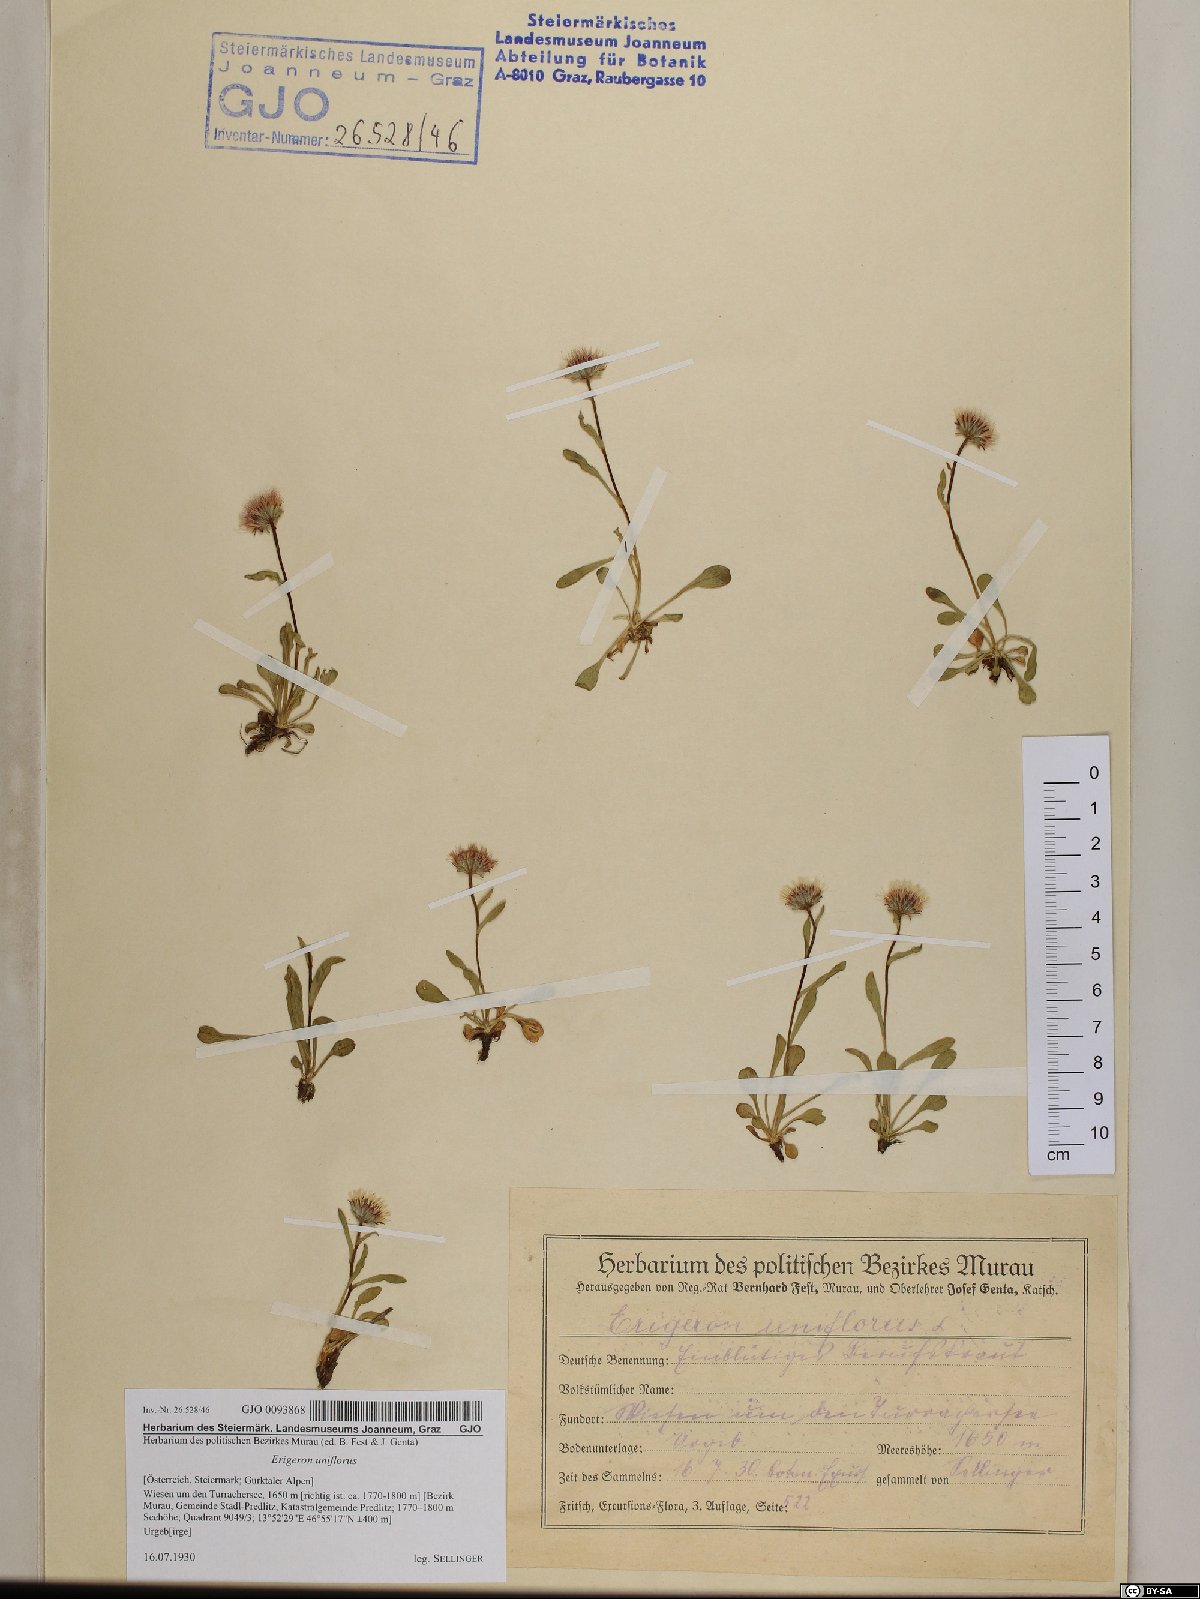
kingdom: Plantae
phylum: Tracheophyta
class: Magnoliopsida
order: Asterales
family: Asteraceae
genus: Erigeron
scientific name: Erigeron uniflorus
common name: Northern daisy
